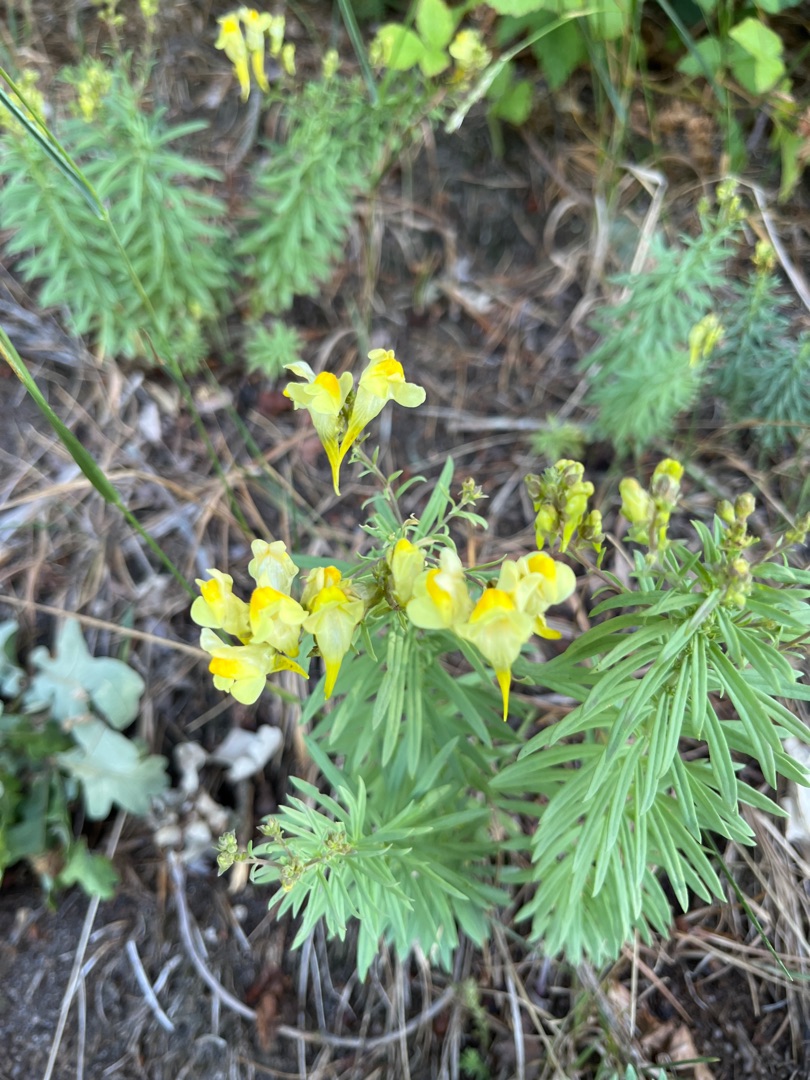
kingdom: Plantae
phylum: Tracheophyta
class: Magnoliopsida
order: Lamiales
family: Plantaginaceae
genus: Linaria
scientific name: Linaria vulgaris
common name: Almindelig torskemund
